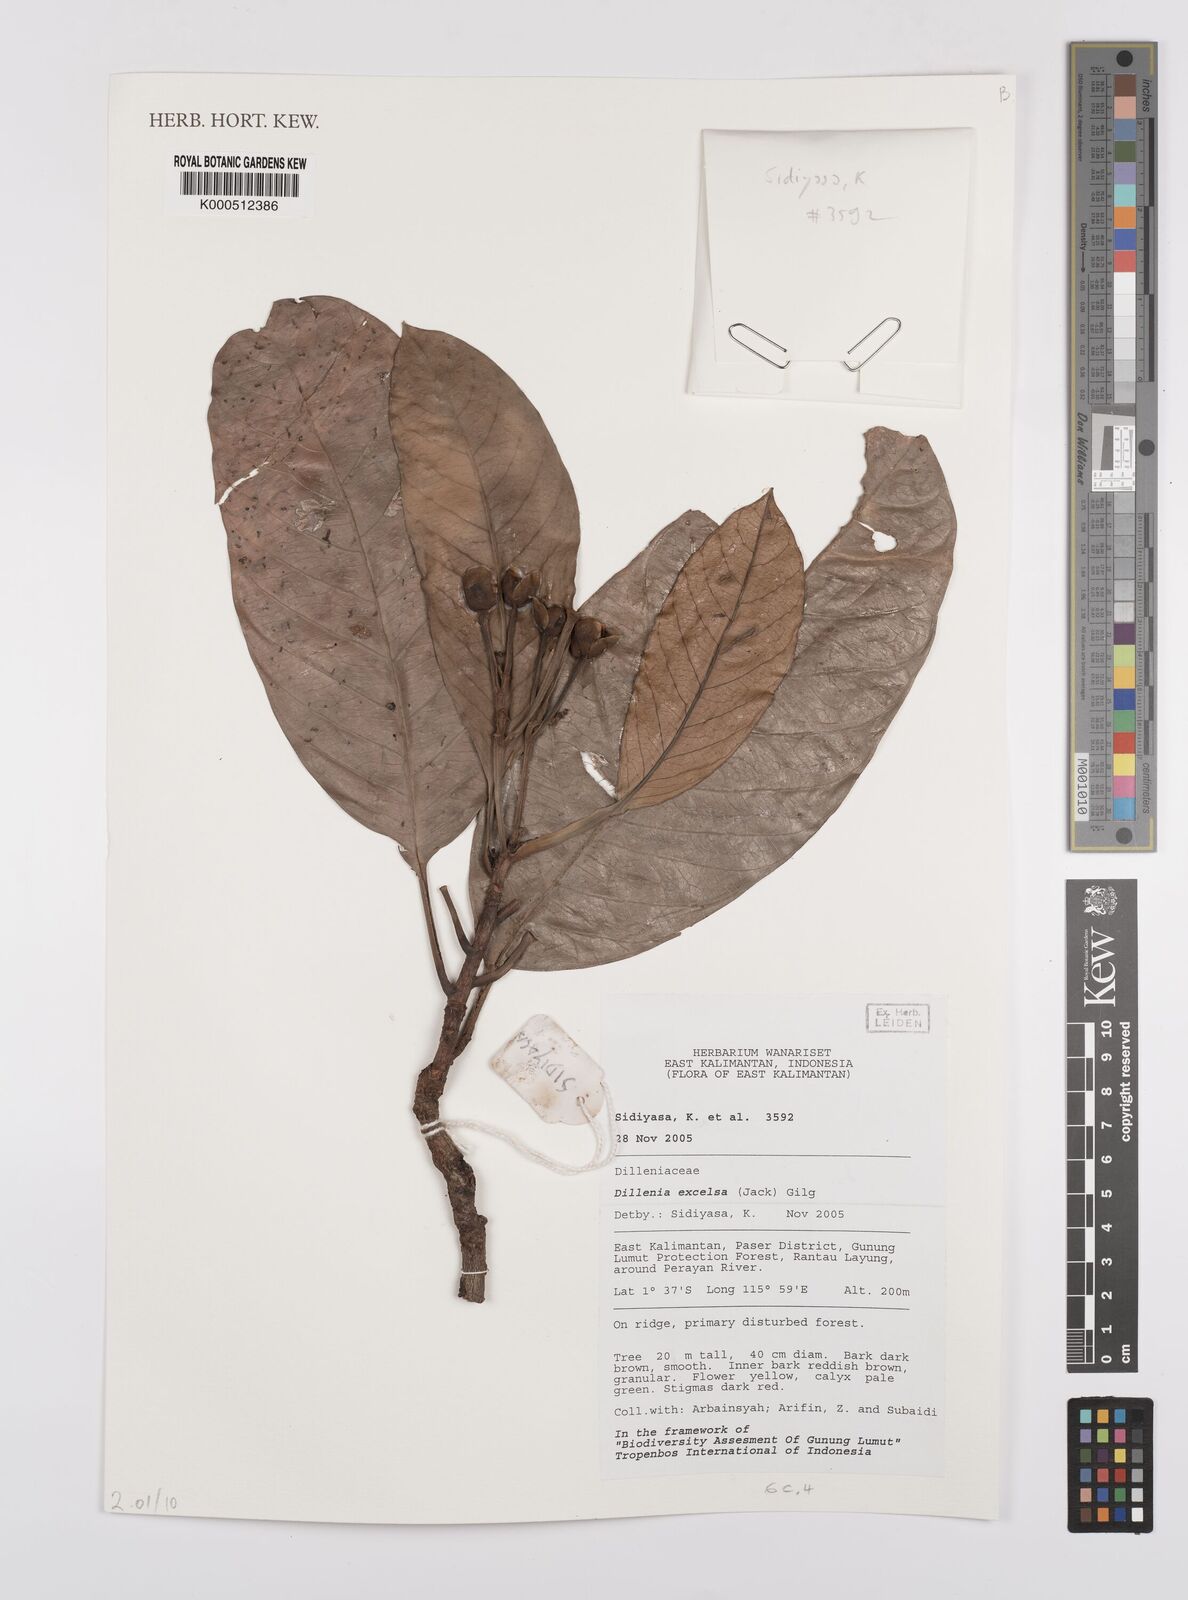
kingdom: Plantae
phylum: Tracheophyta
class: Magnoliopsida
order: Dilleniales
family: Dilleniaceae
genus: Dillenia
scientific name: Dillenia
